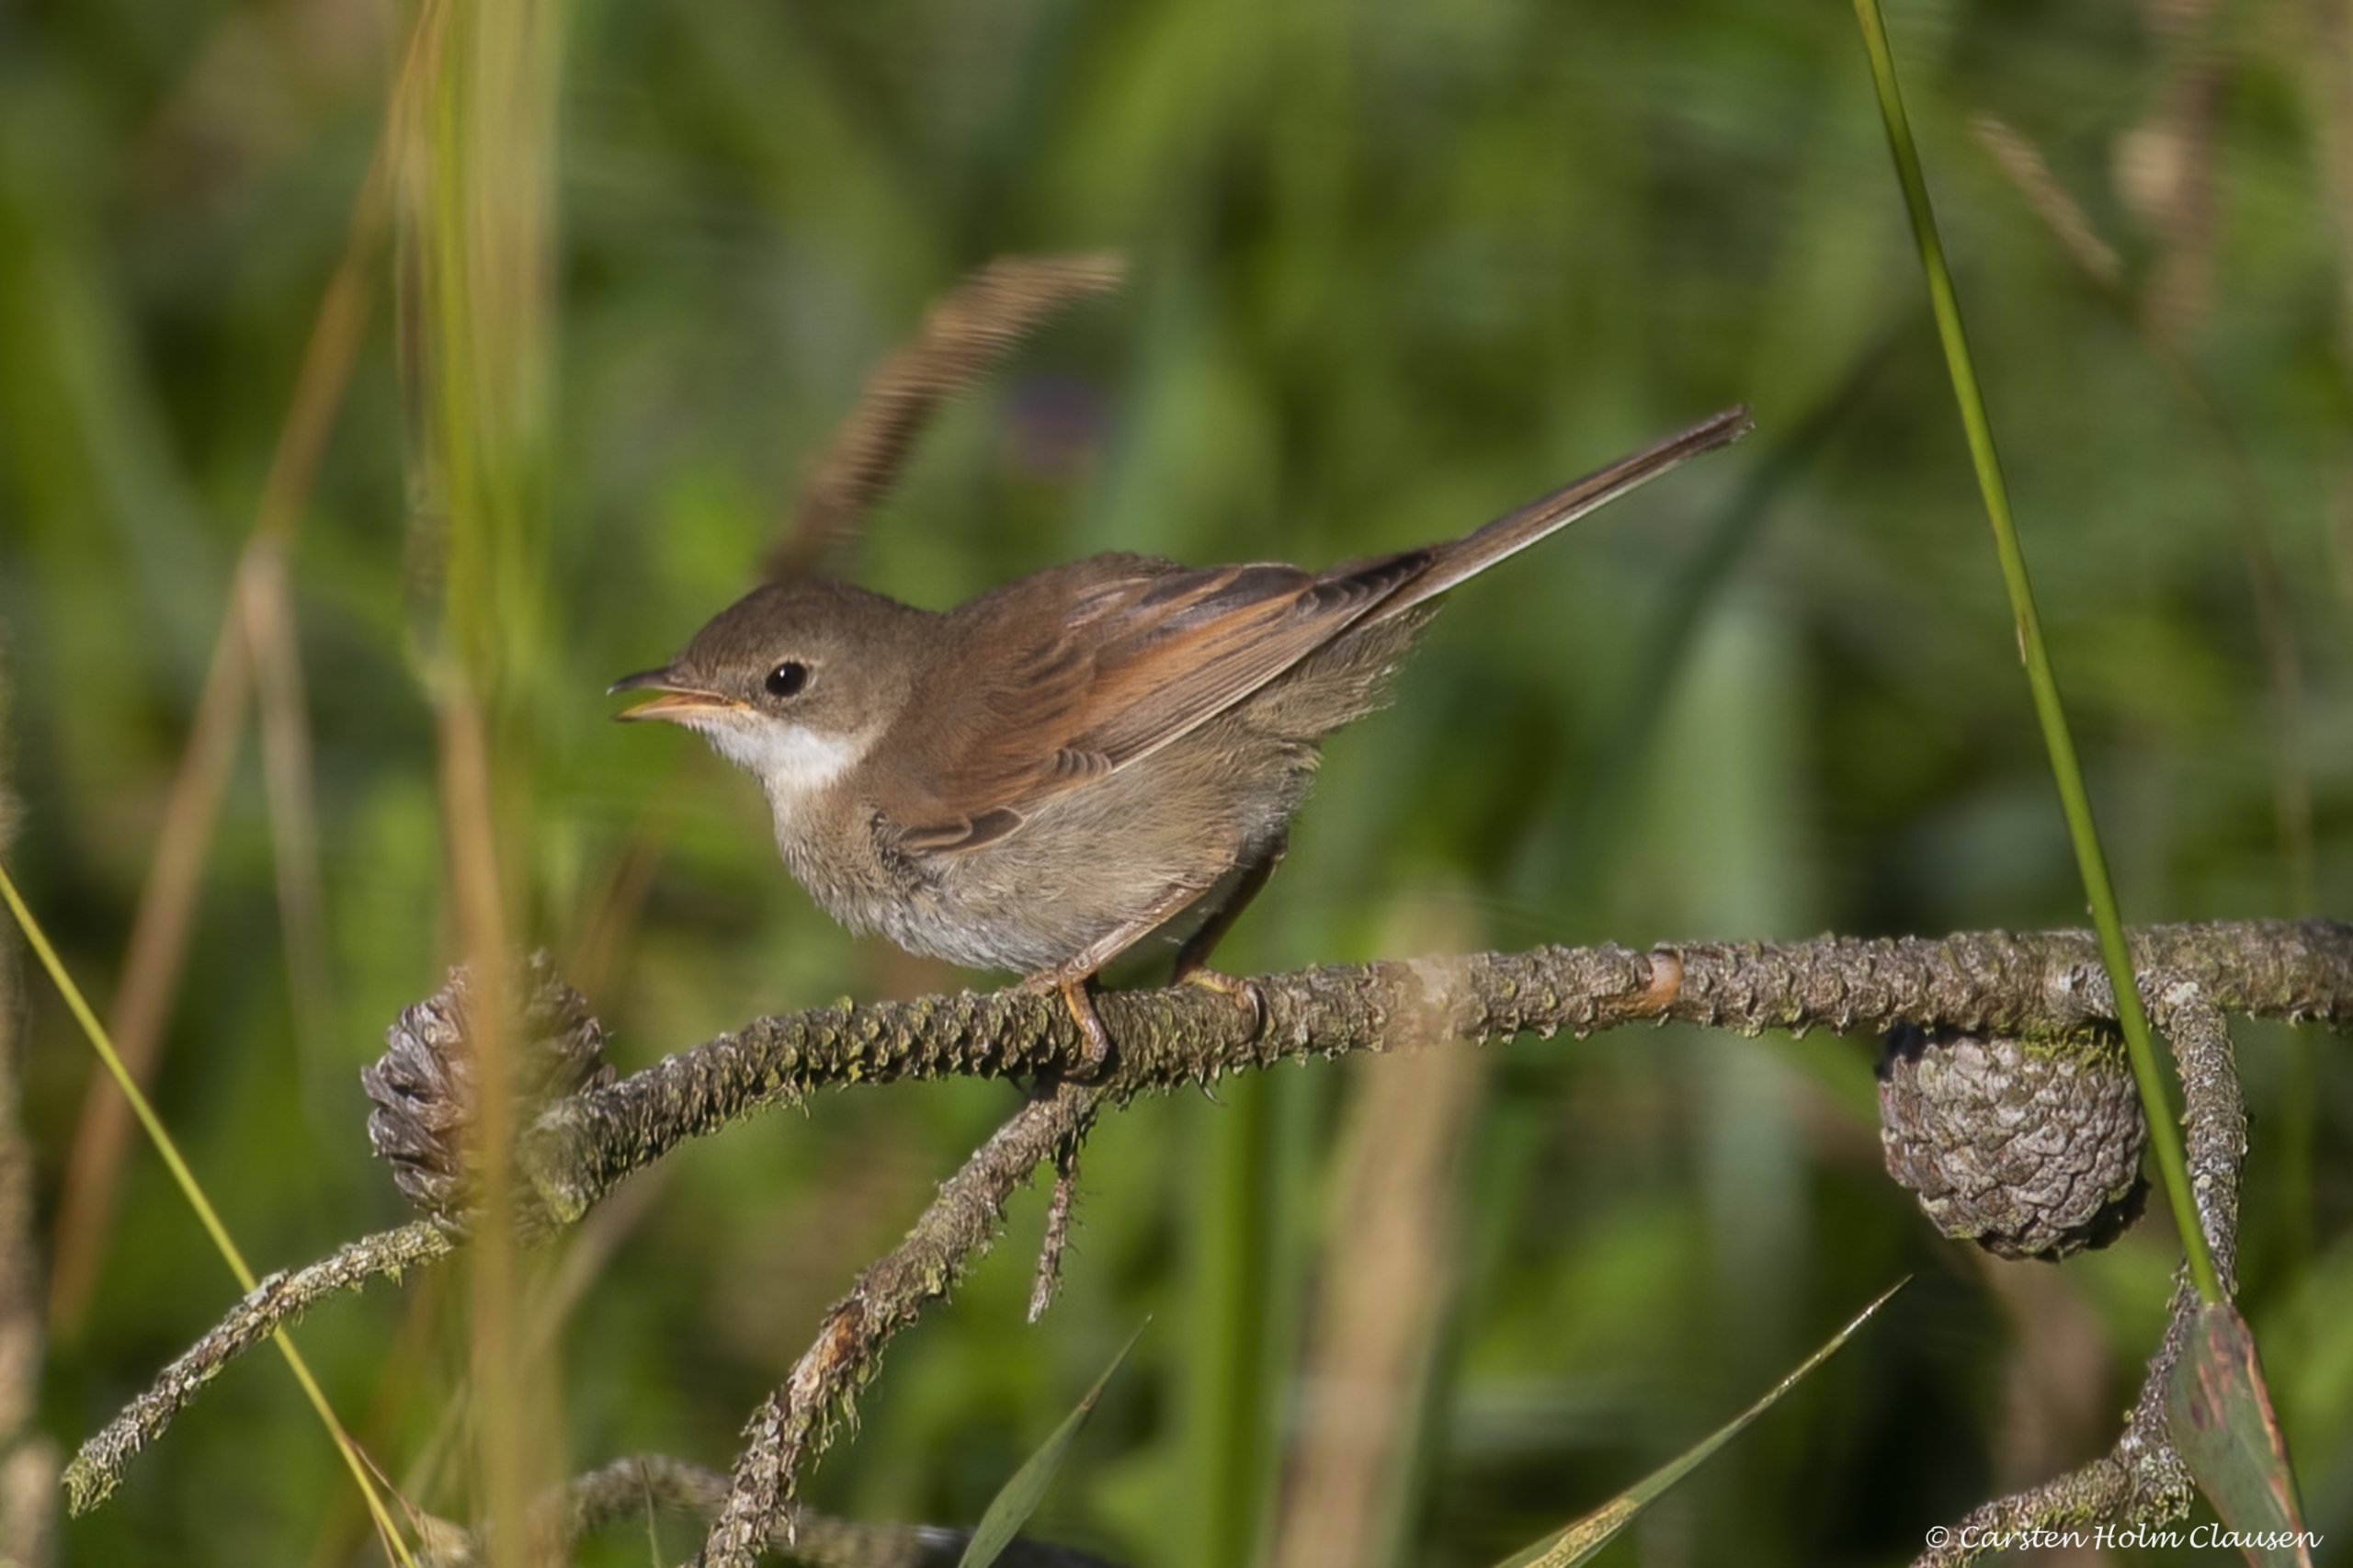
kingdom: Animalia
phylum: Chordata
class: Aves
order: Passeriformes
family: Sylviidae
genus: Sylvia
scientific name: Sylvia communis
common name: Tornsanger
